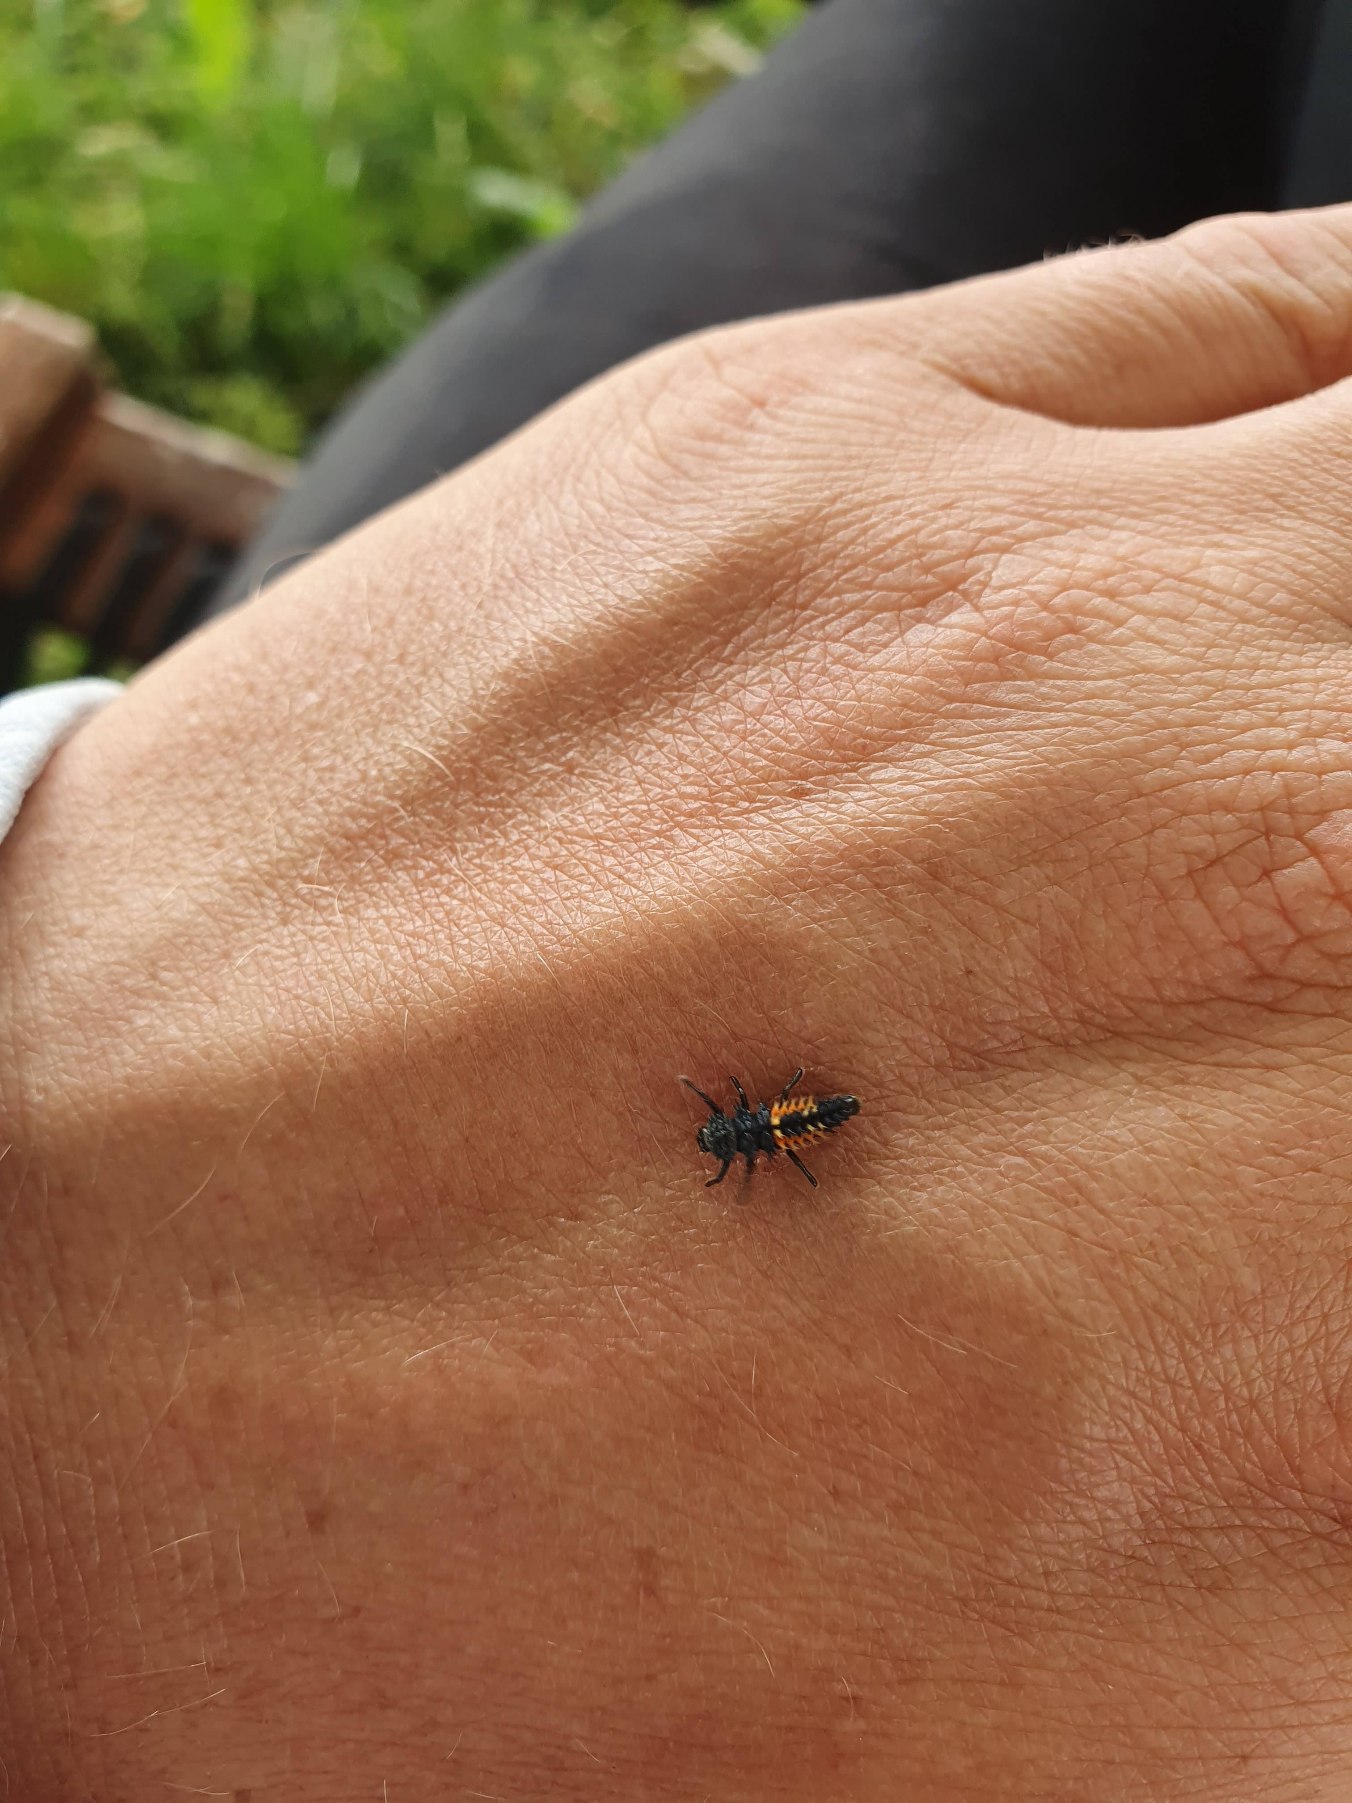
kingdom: Animalia
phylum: Arthropoda
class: Insecta
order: Coleoptera
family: Coccinellidae
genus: Harmonia
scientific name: Harmonia axyridis
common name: Harlekinmariehøne
